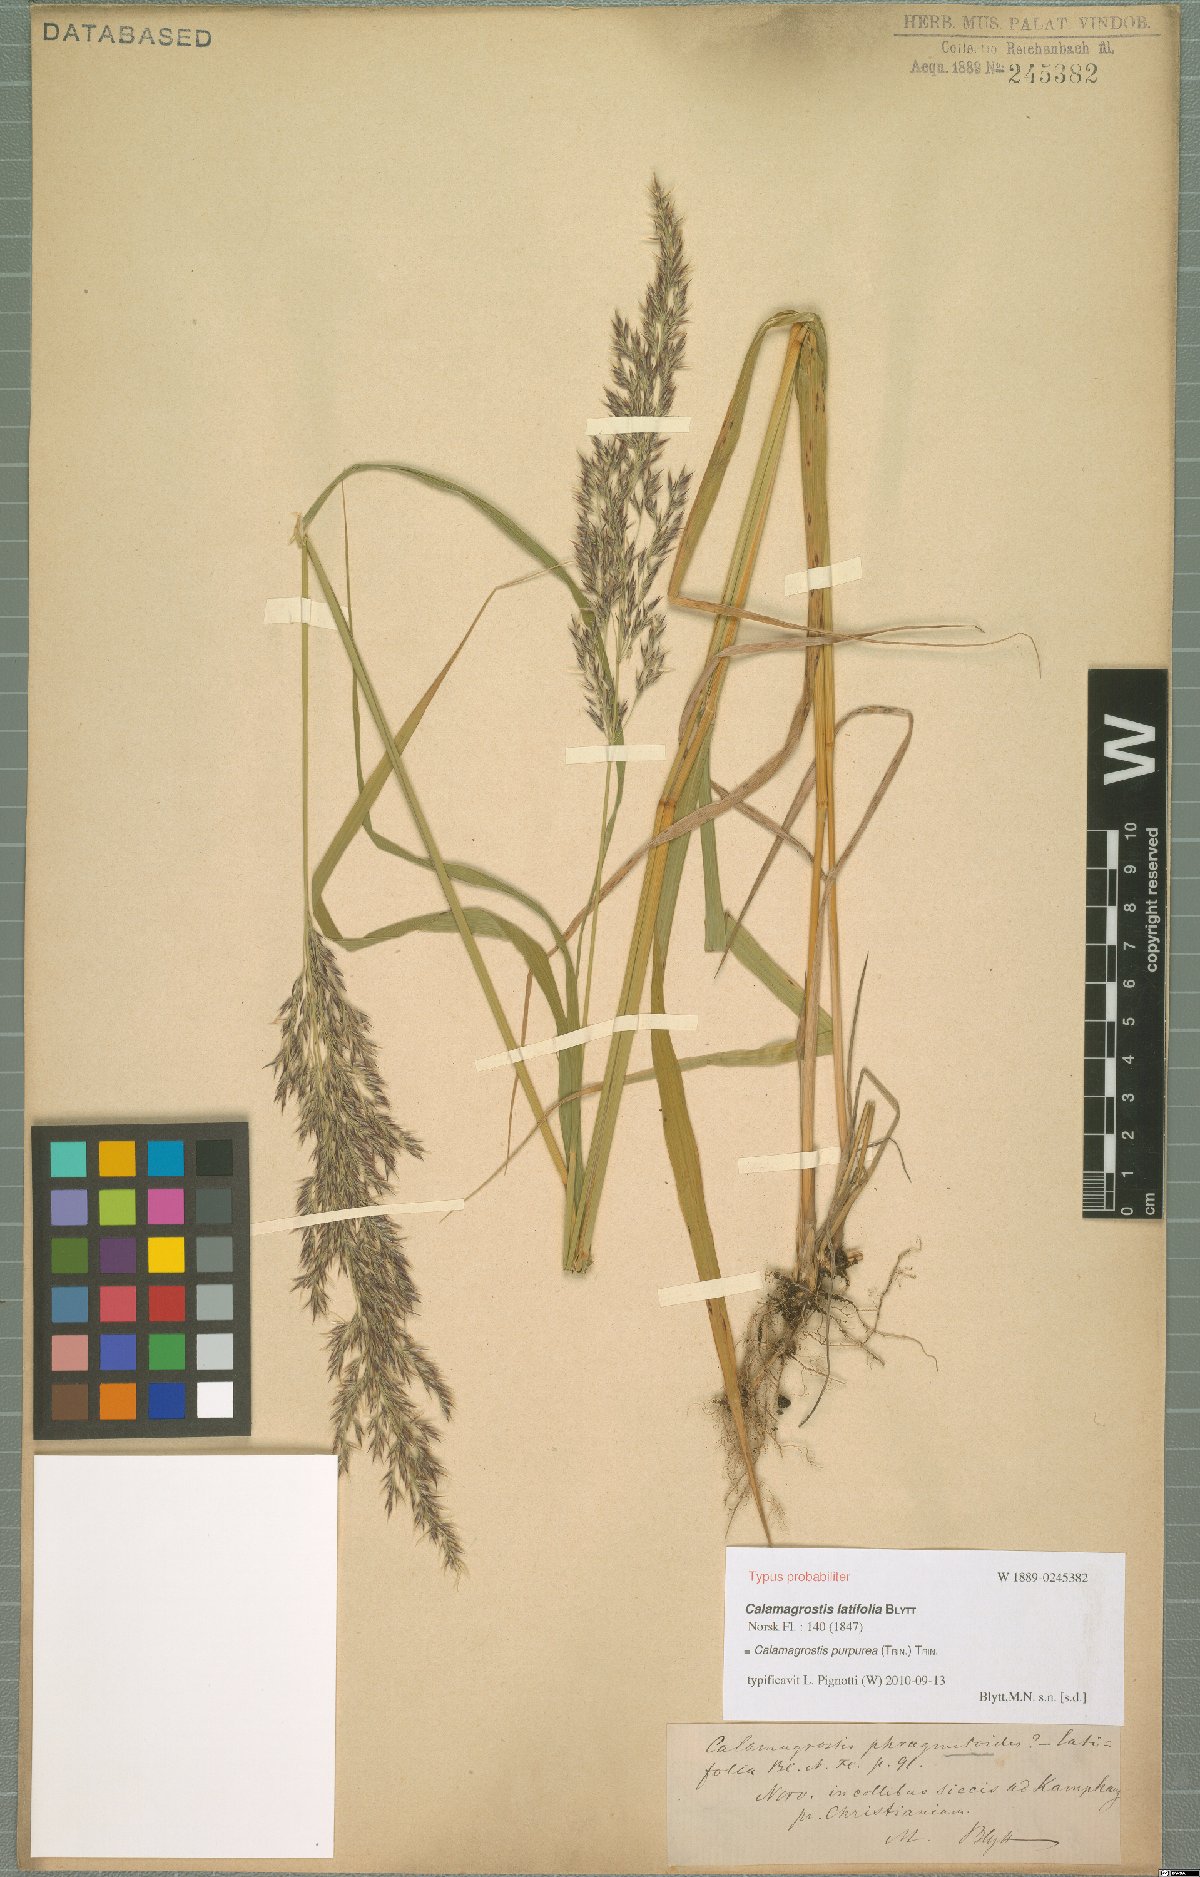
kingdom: Plantae
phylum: Tracheophyta
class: Liliopsida
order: Poales
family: Poaceae
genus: Calamagrostis
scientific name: Calamagrostis purpurea
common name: Scandinavian small-reed
